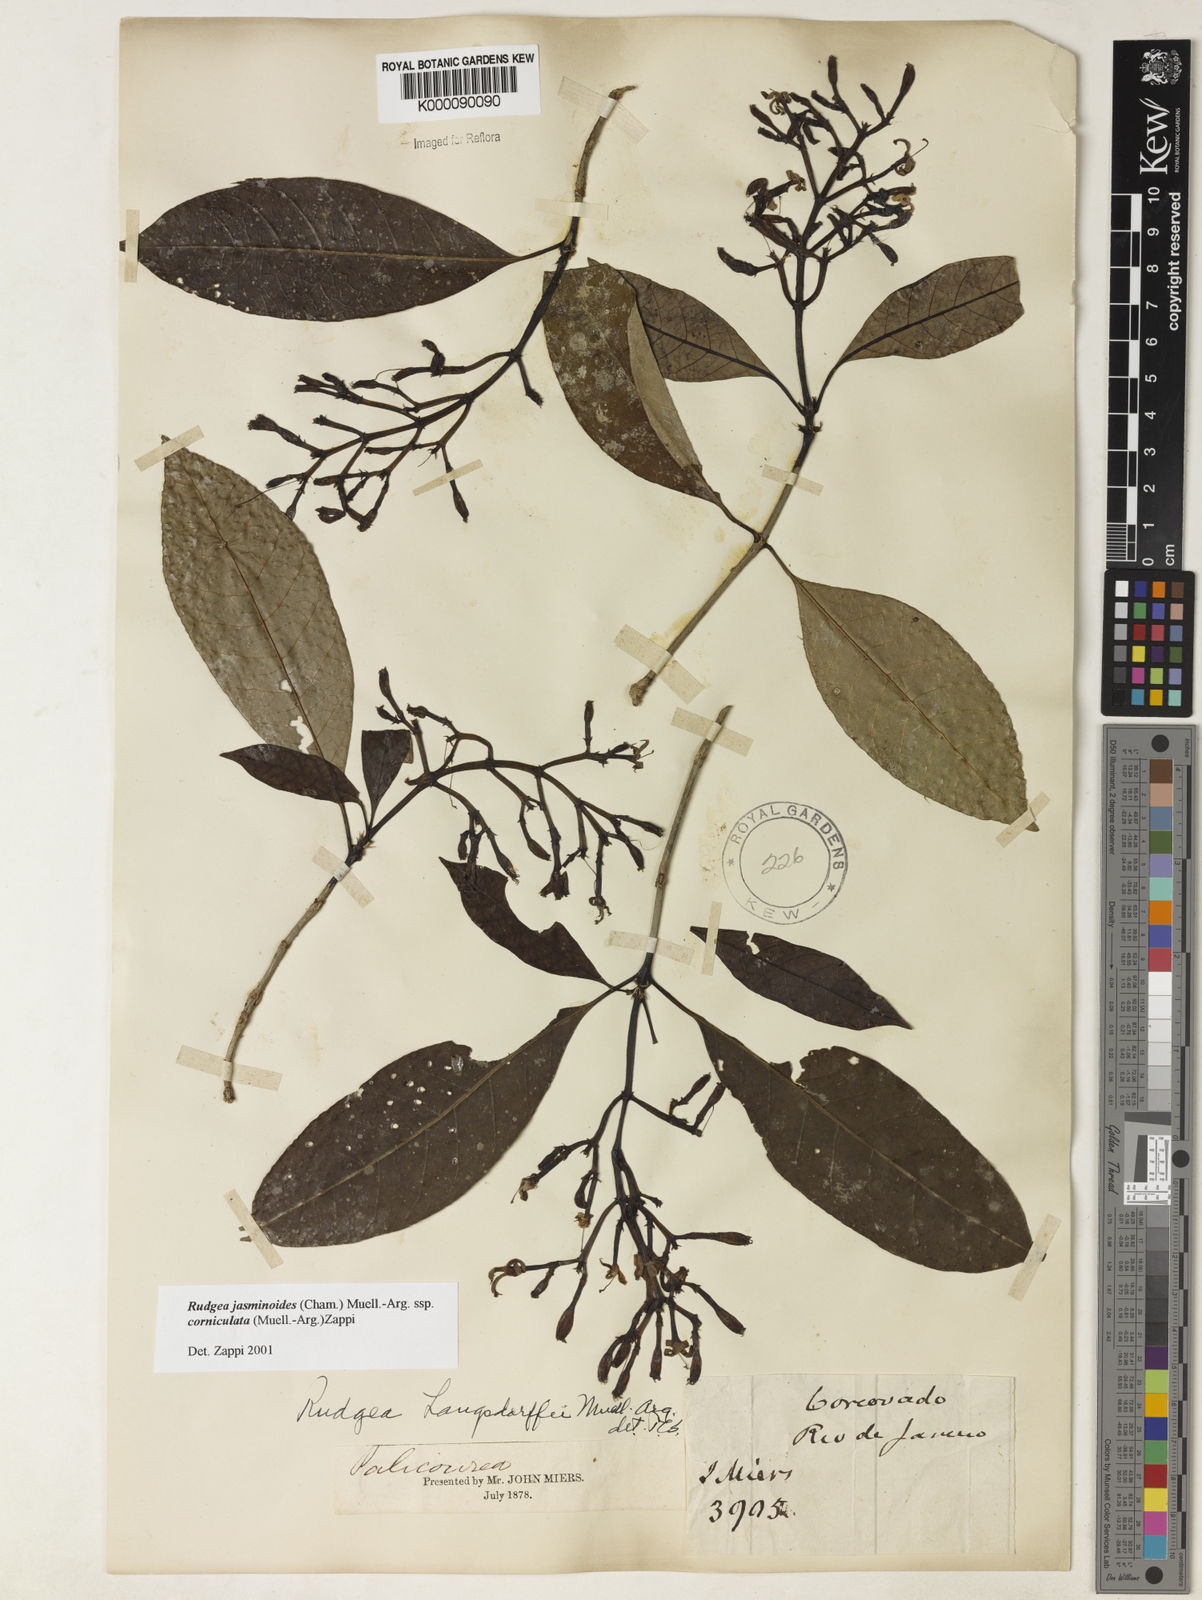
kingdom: Plantae
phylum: Tracheophyta
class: Magnoliopsida
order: Gentianales
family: Rubiaceae
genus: Rudgea
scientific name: Rudgea jasminoides
